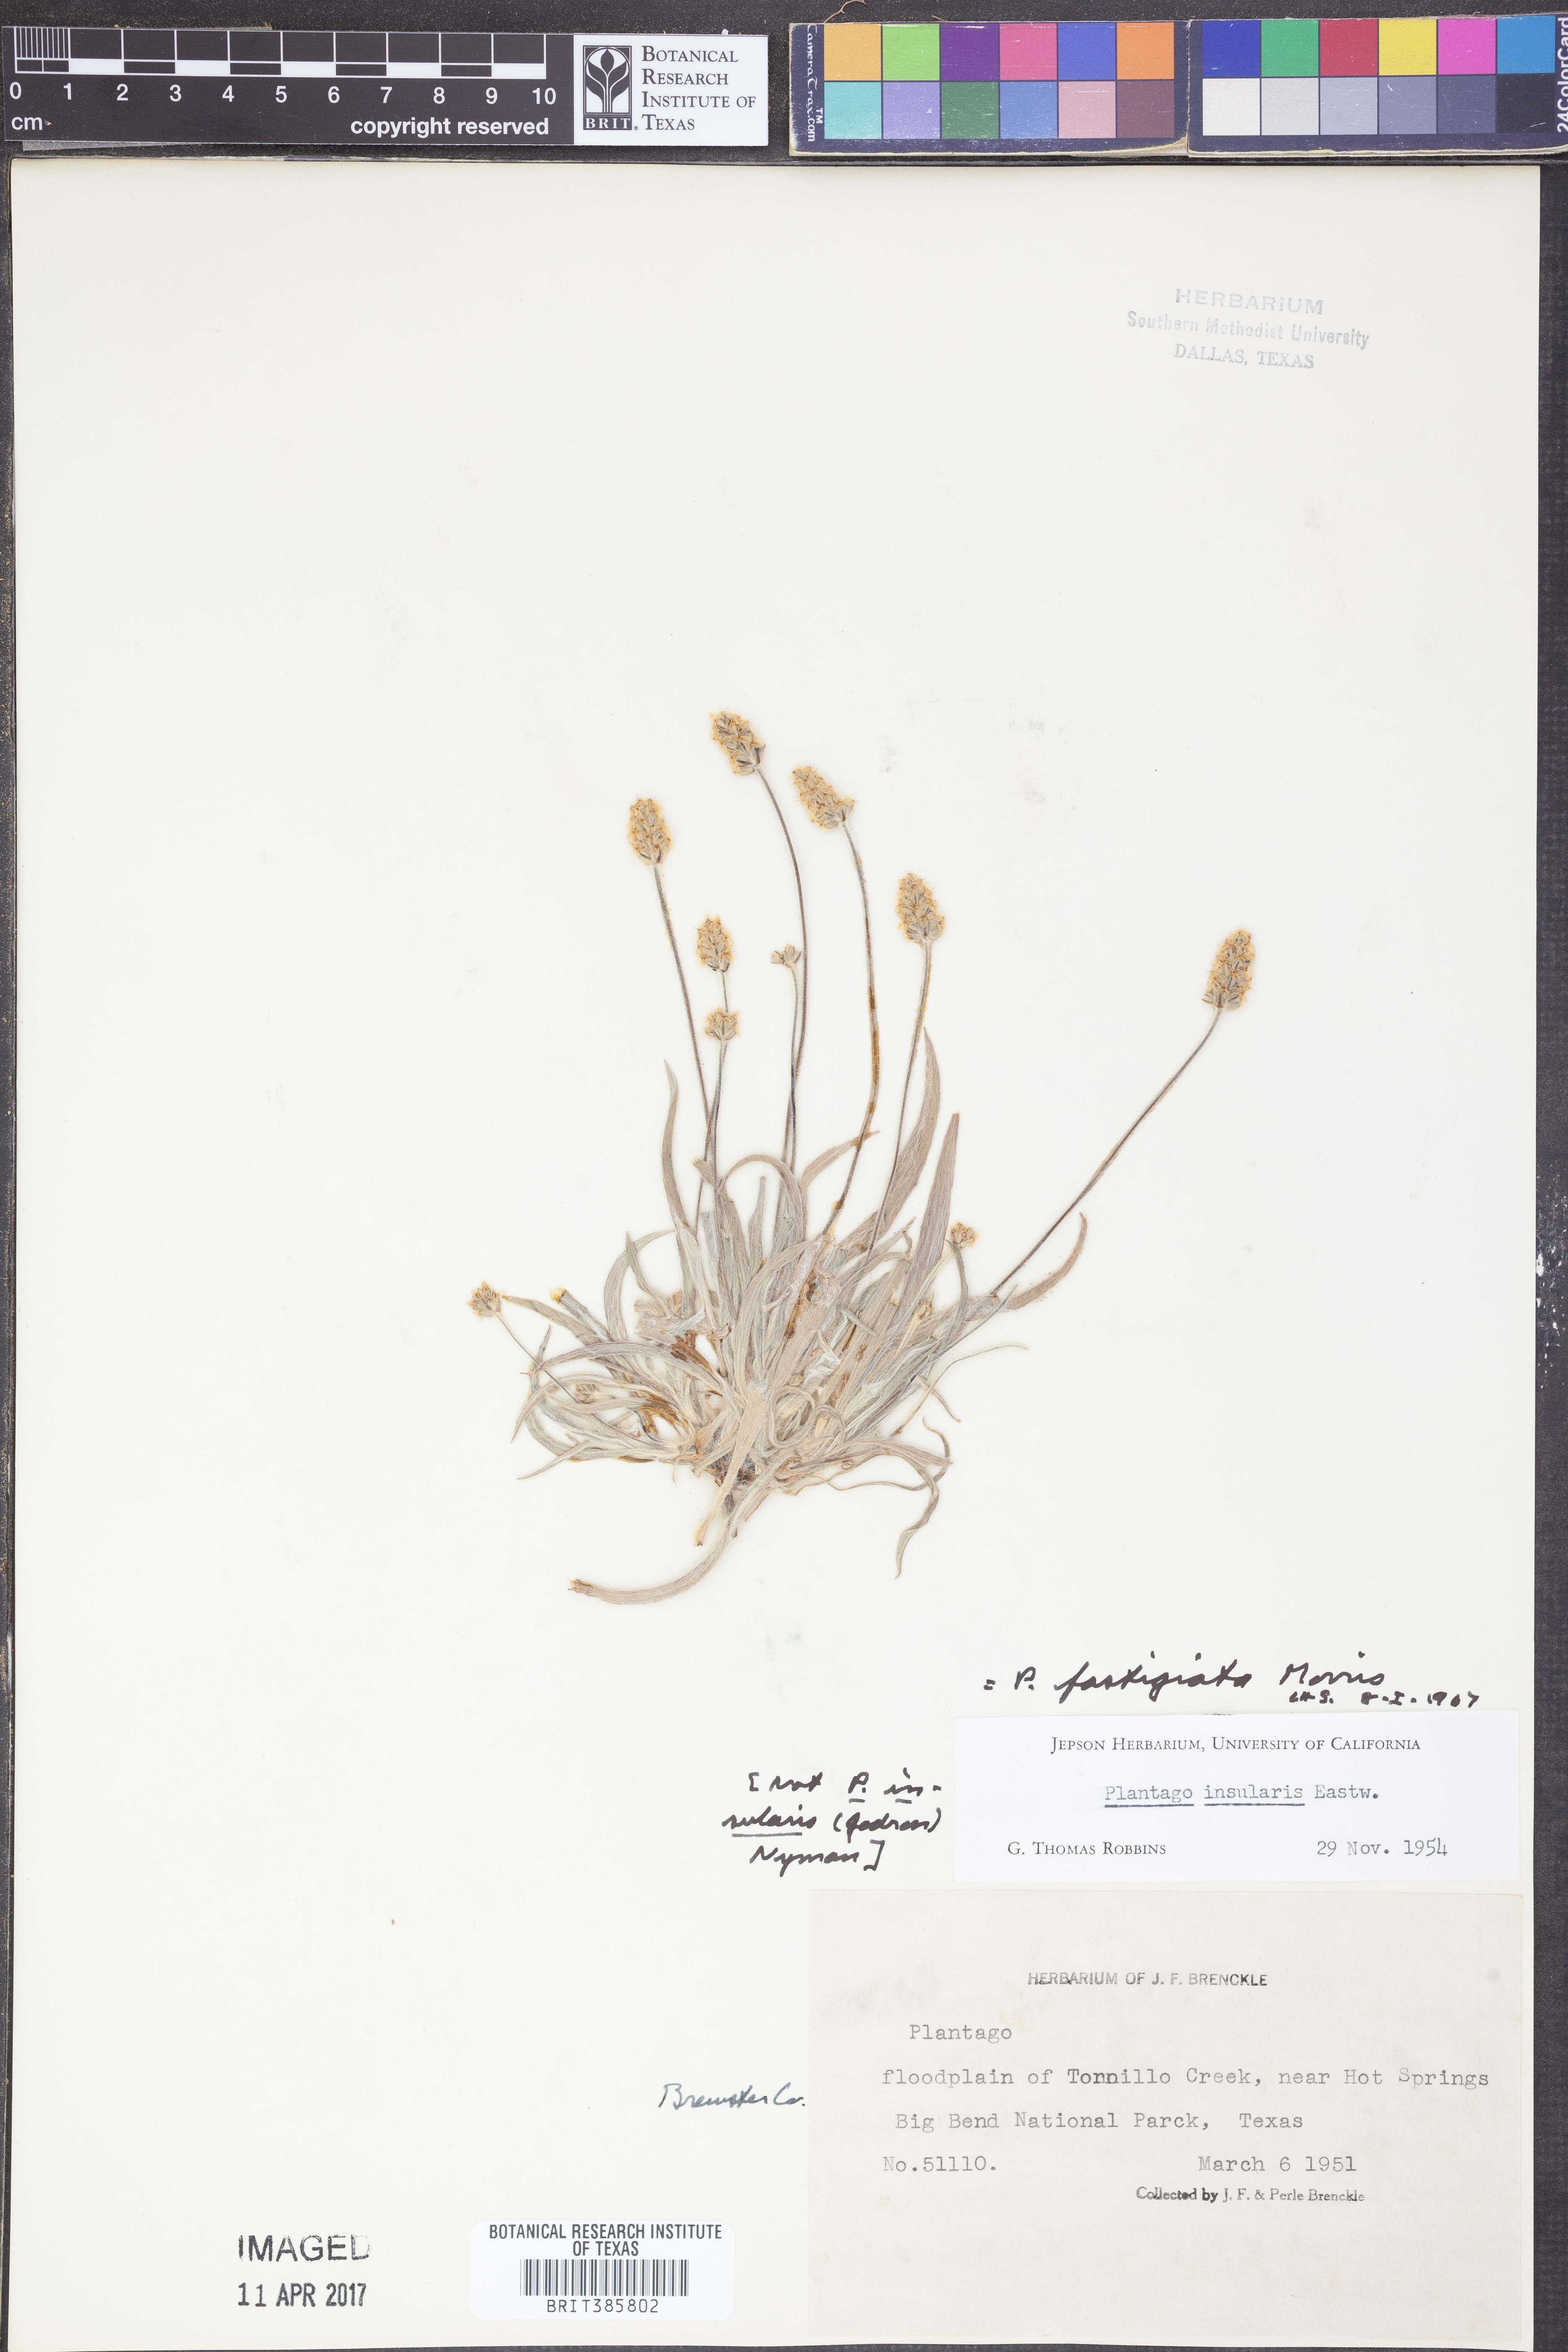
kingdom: Plantae
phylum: Tracheophyta
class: Magnoliopsida
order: Lamiales
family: Plantaginaceae
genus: Plantago
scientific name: Plantago ovata
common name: Blond plantain
